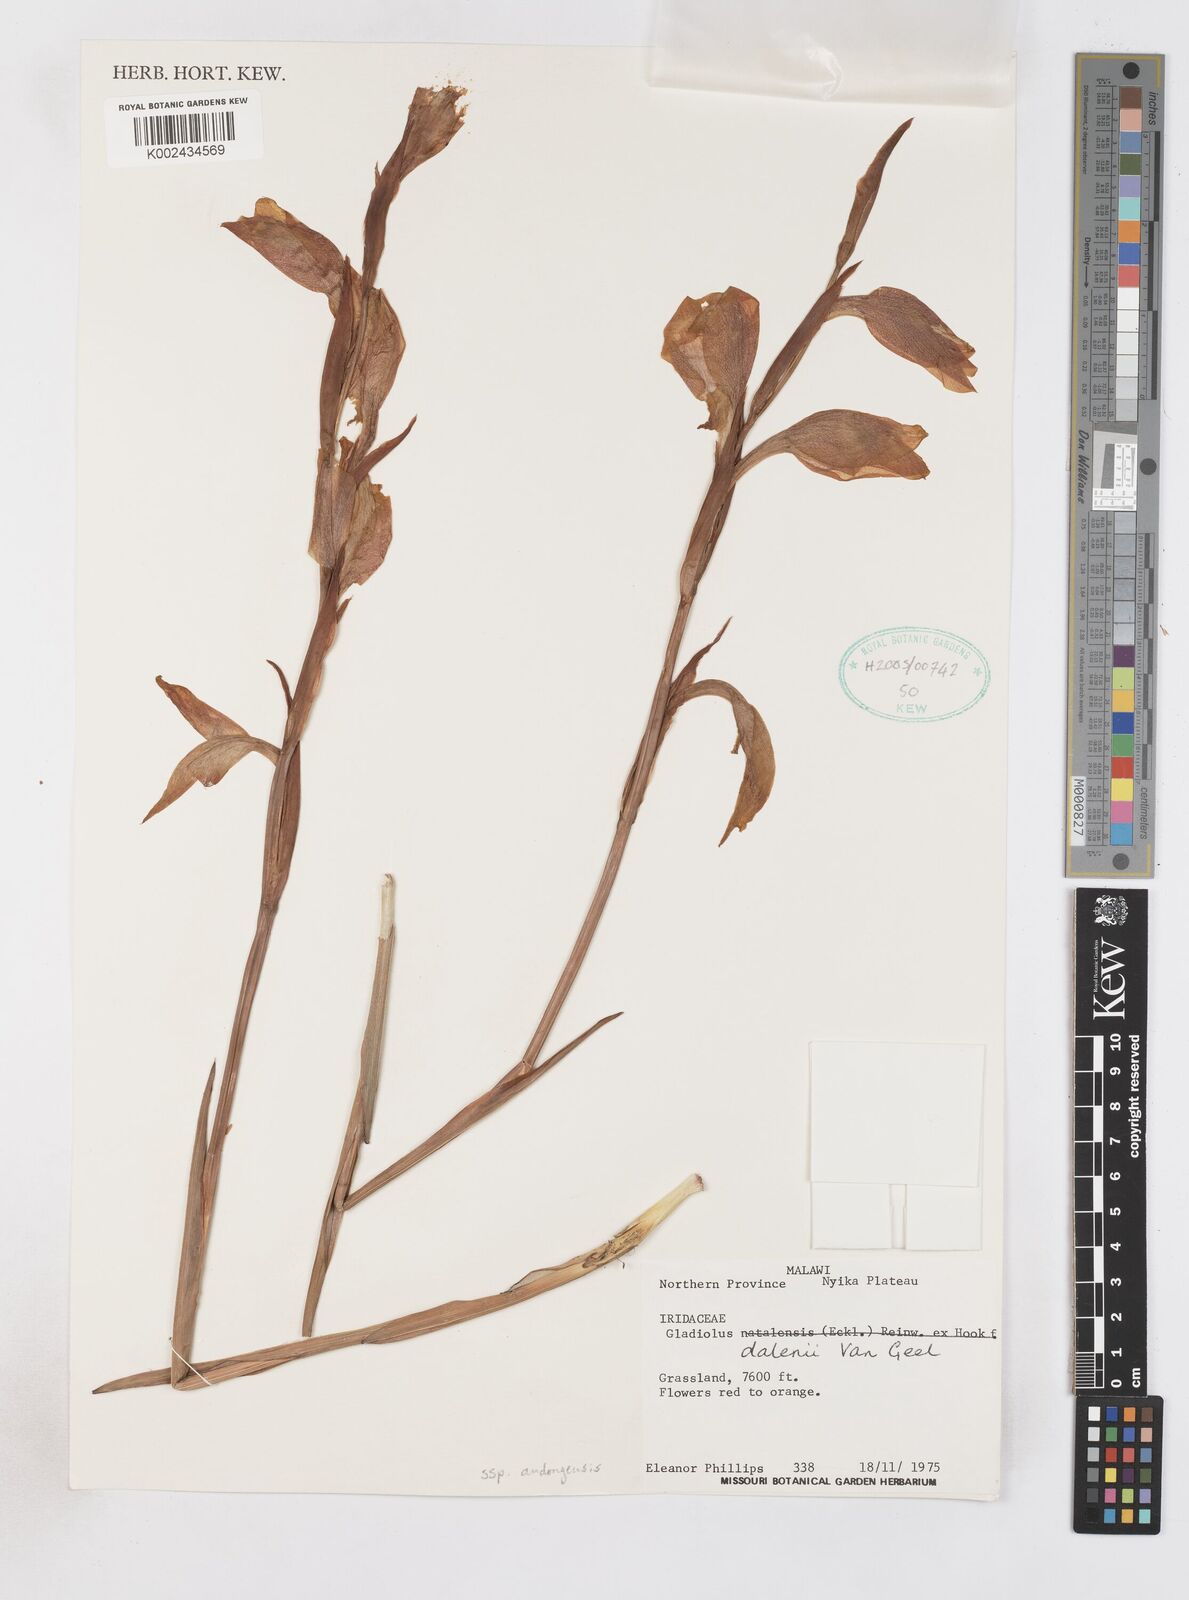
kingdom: Plantae
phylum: Tracheophyta
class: Liliopsida
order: Asparagales
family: Iridaceae
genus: Gladiolus
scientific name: Gladiolus dalenii
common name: Cornflag
